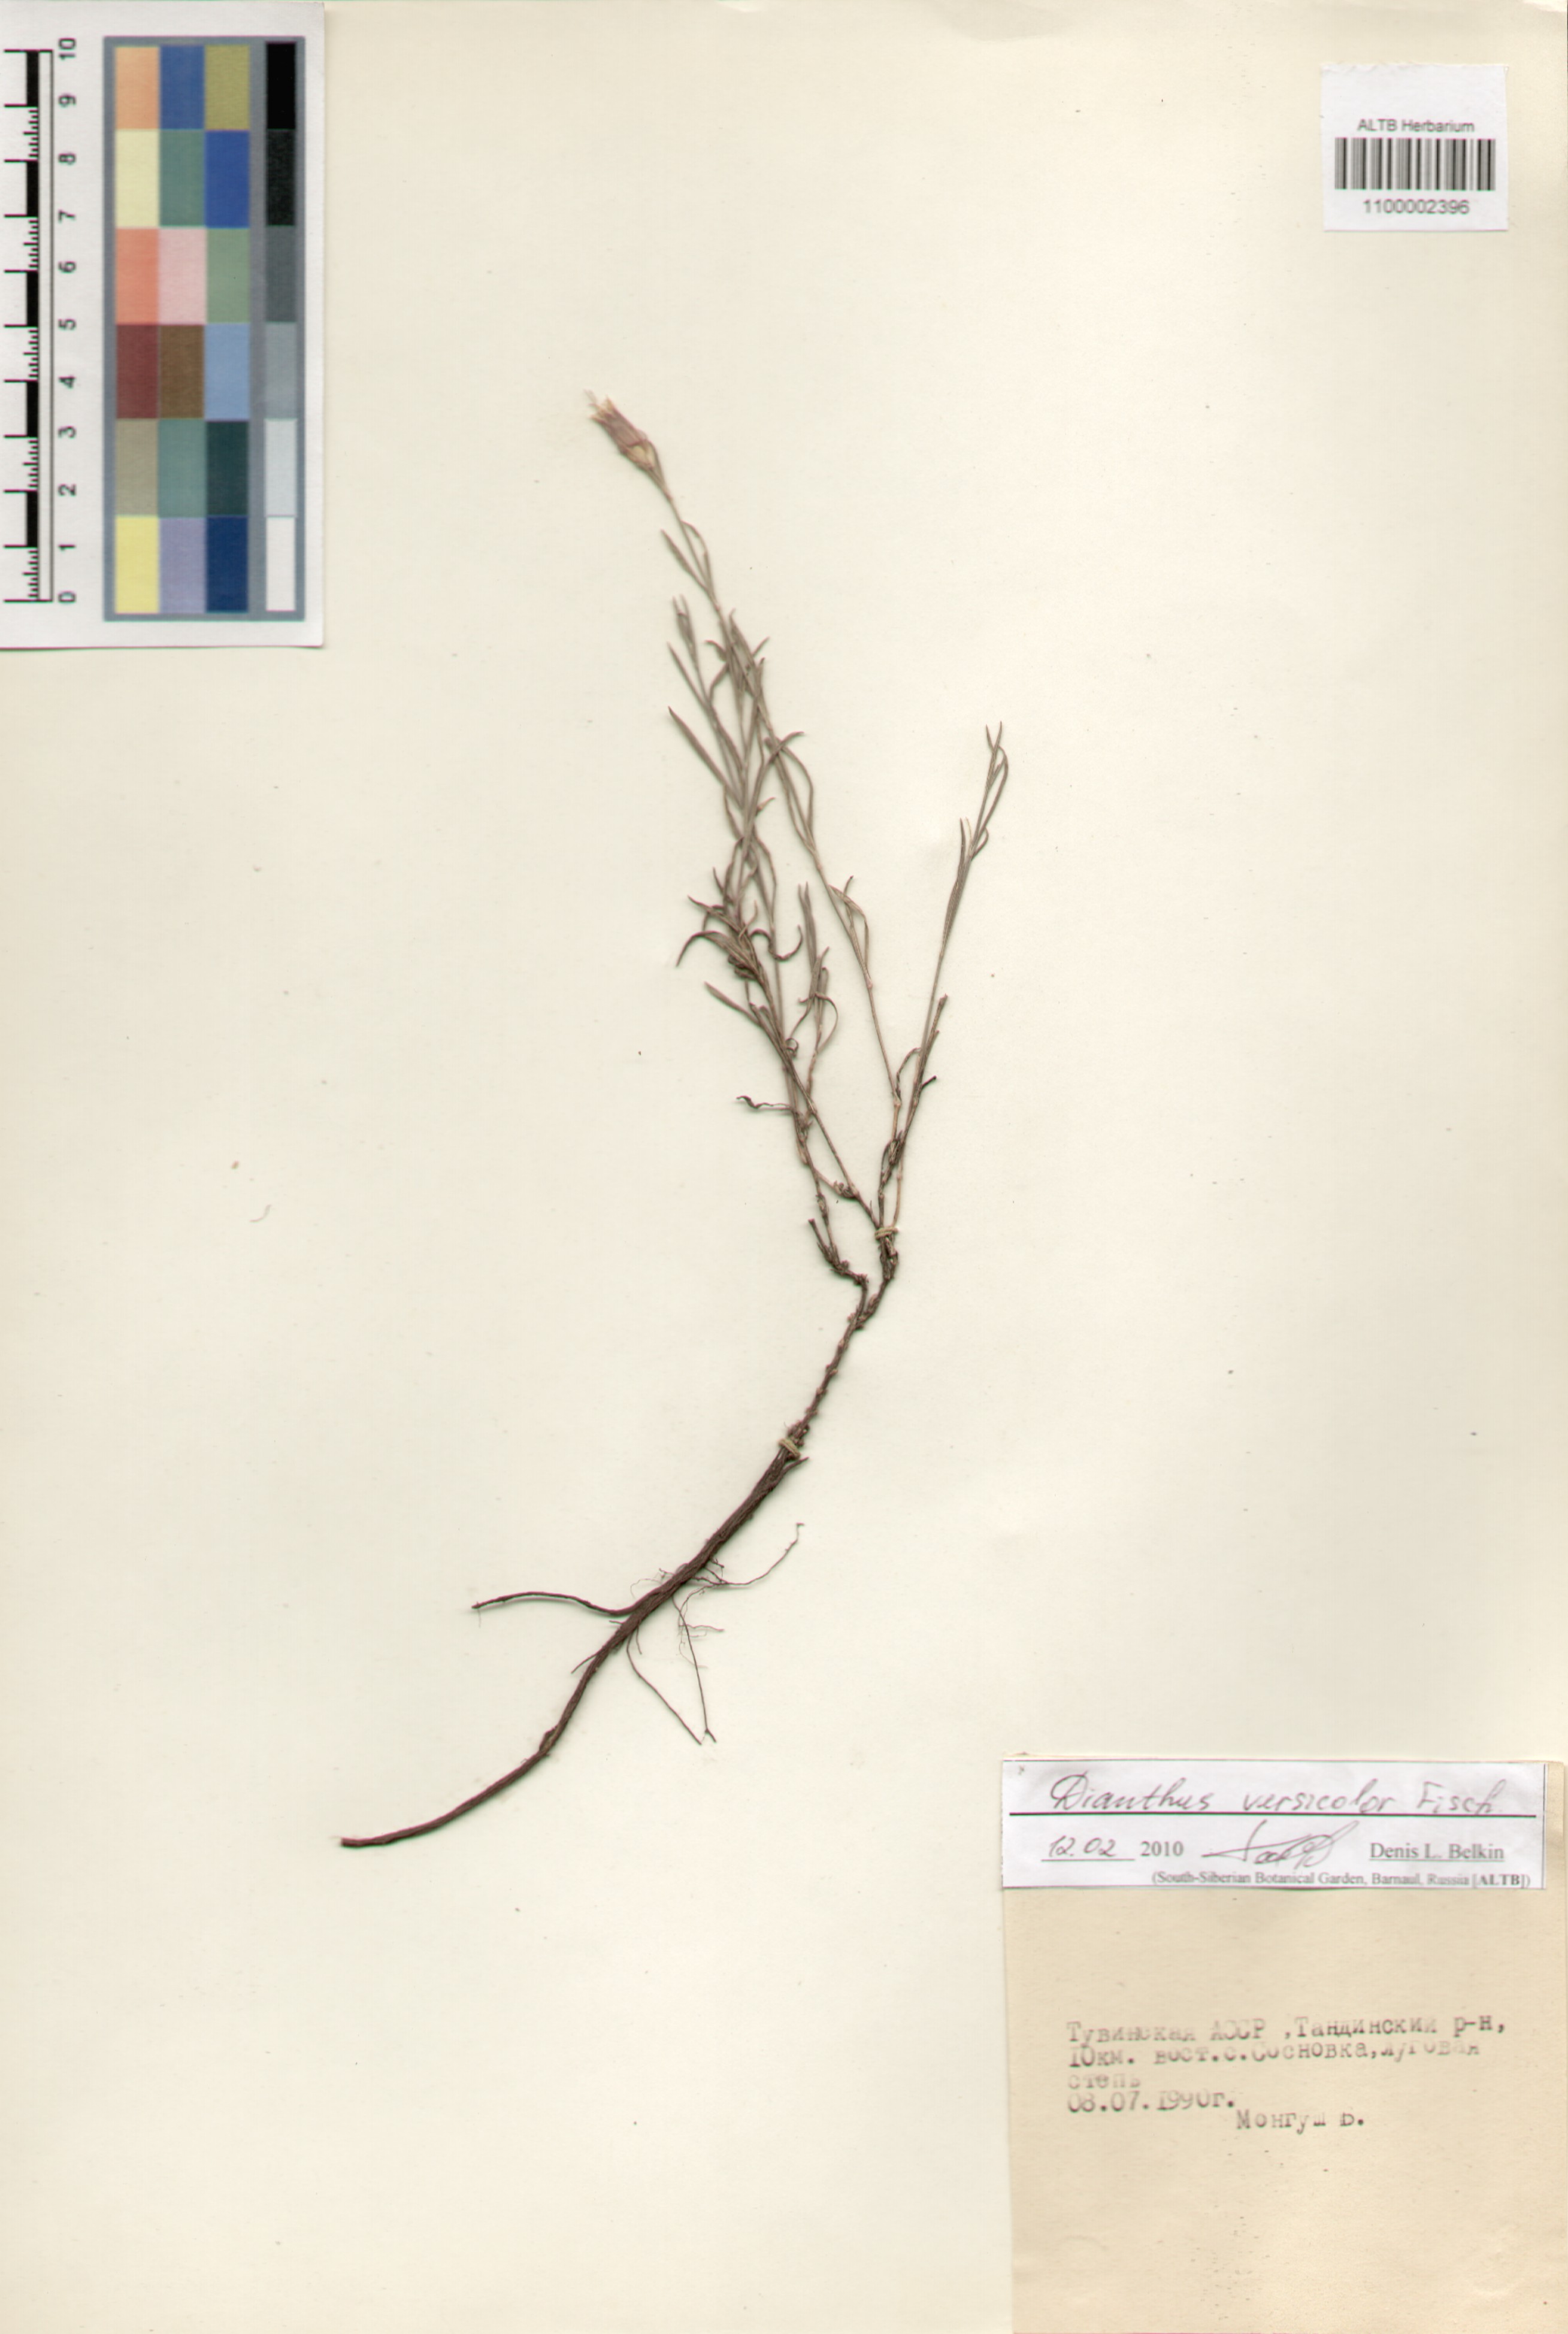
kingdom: Plantae
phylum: Tracheophyta
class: Magnoliopsida
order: Caryophyllales
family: Caryophyllaceae
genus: Dianthus
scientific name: Dianthus chinensis
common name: Rainbow pink
